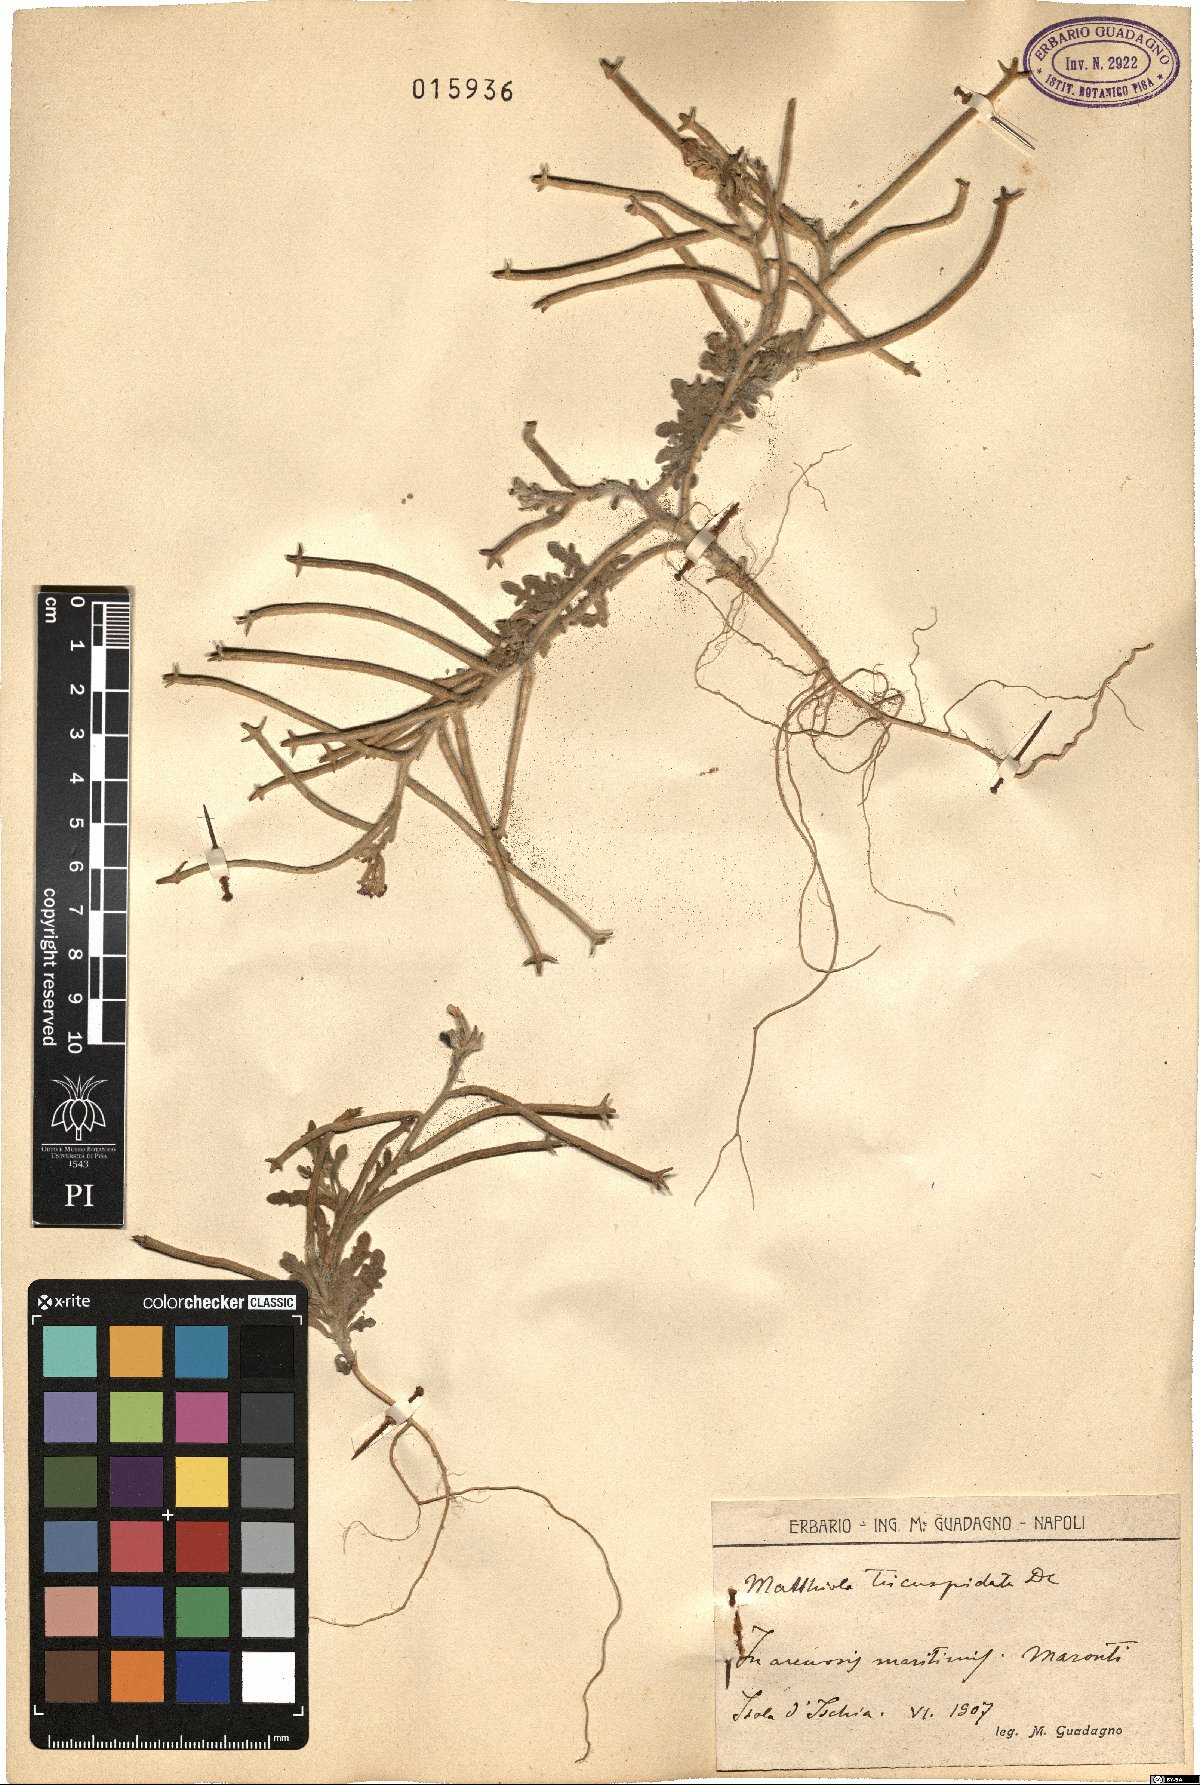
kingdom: Plantae
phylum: Tracheophyta
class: Magnoliopsida
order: Brassicales
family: Brassicaceae
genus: Matthiola
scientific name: Matthiola tricuspidata
